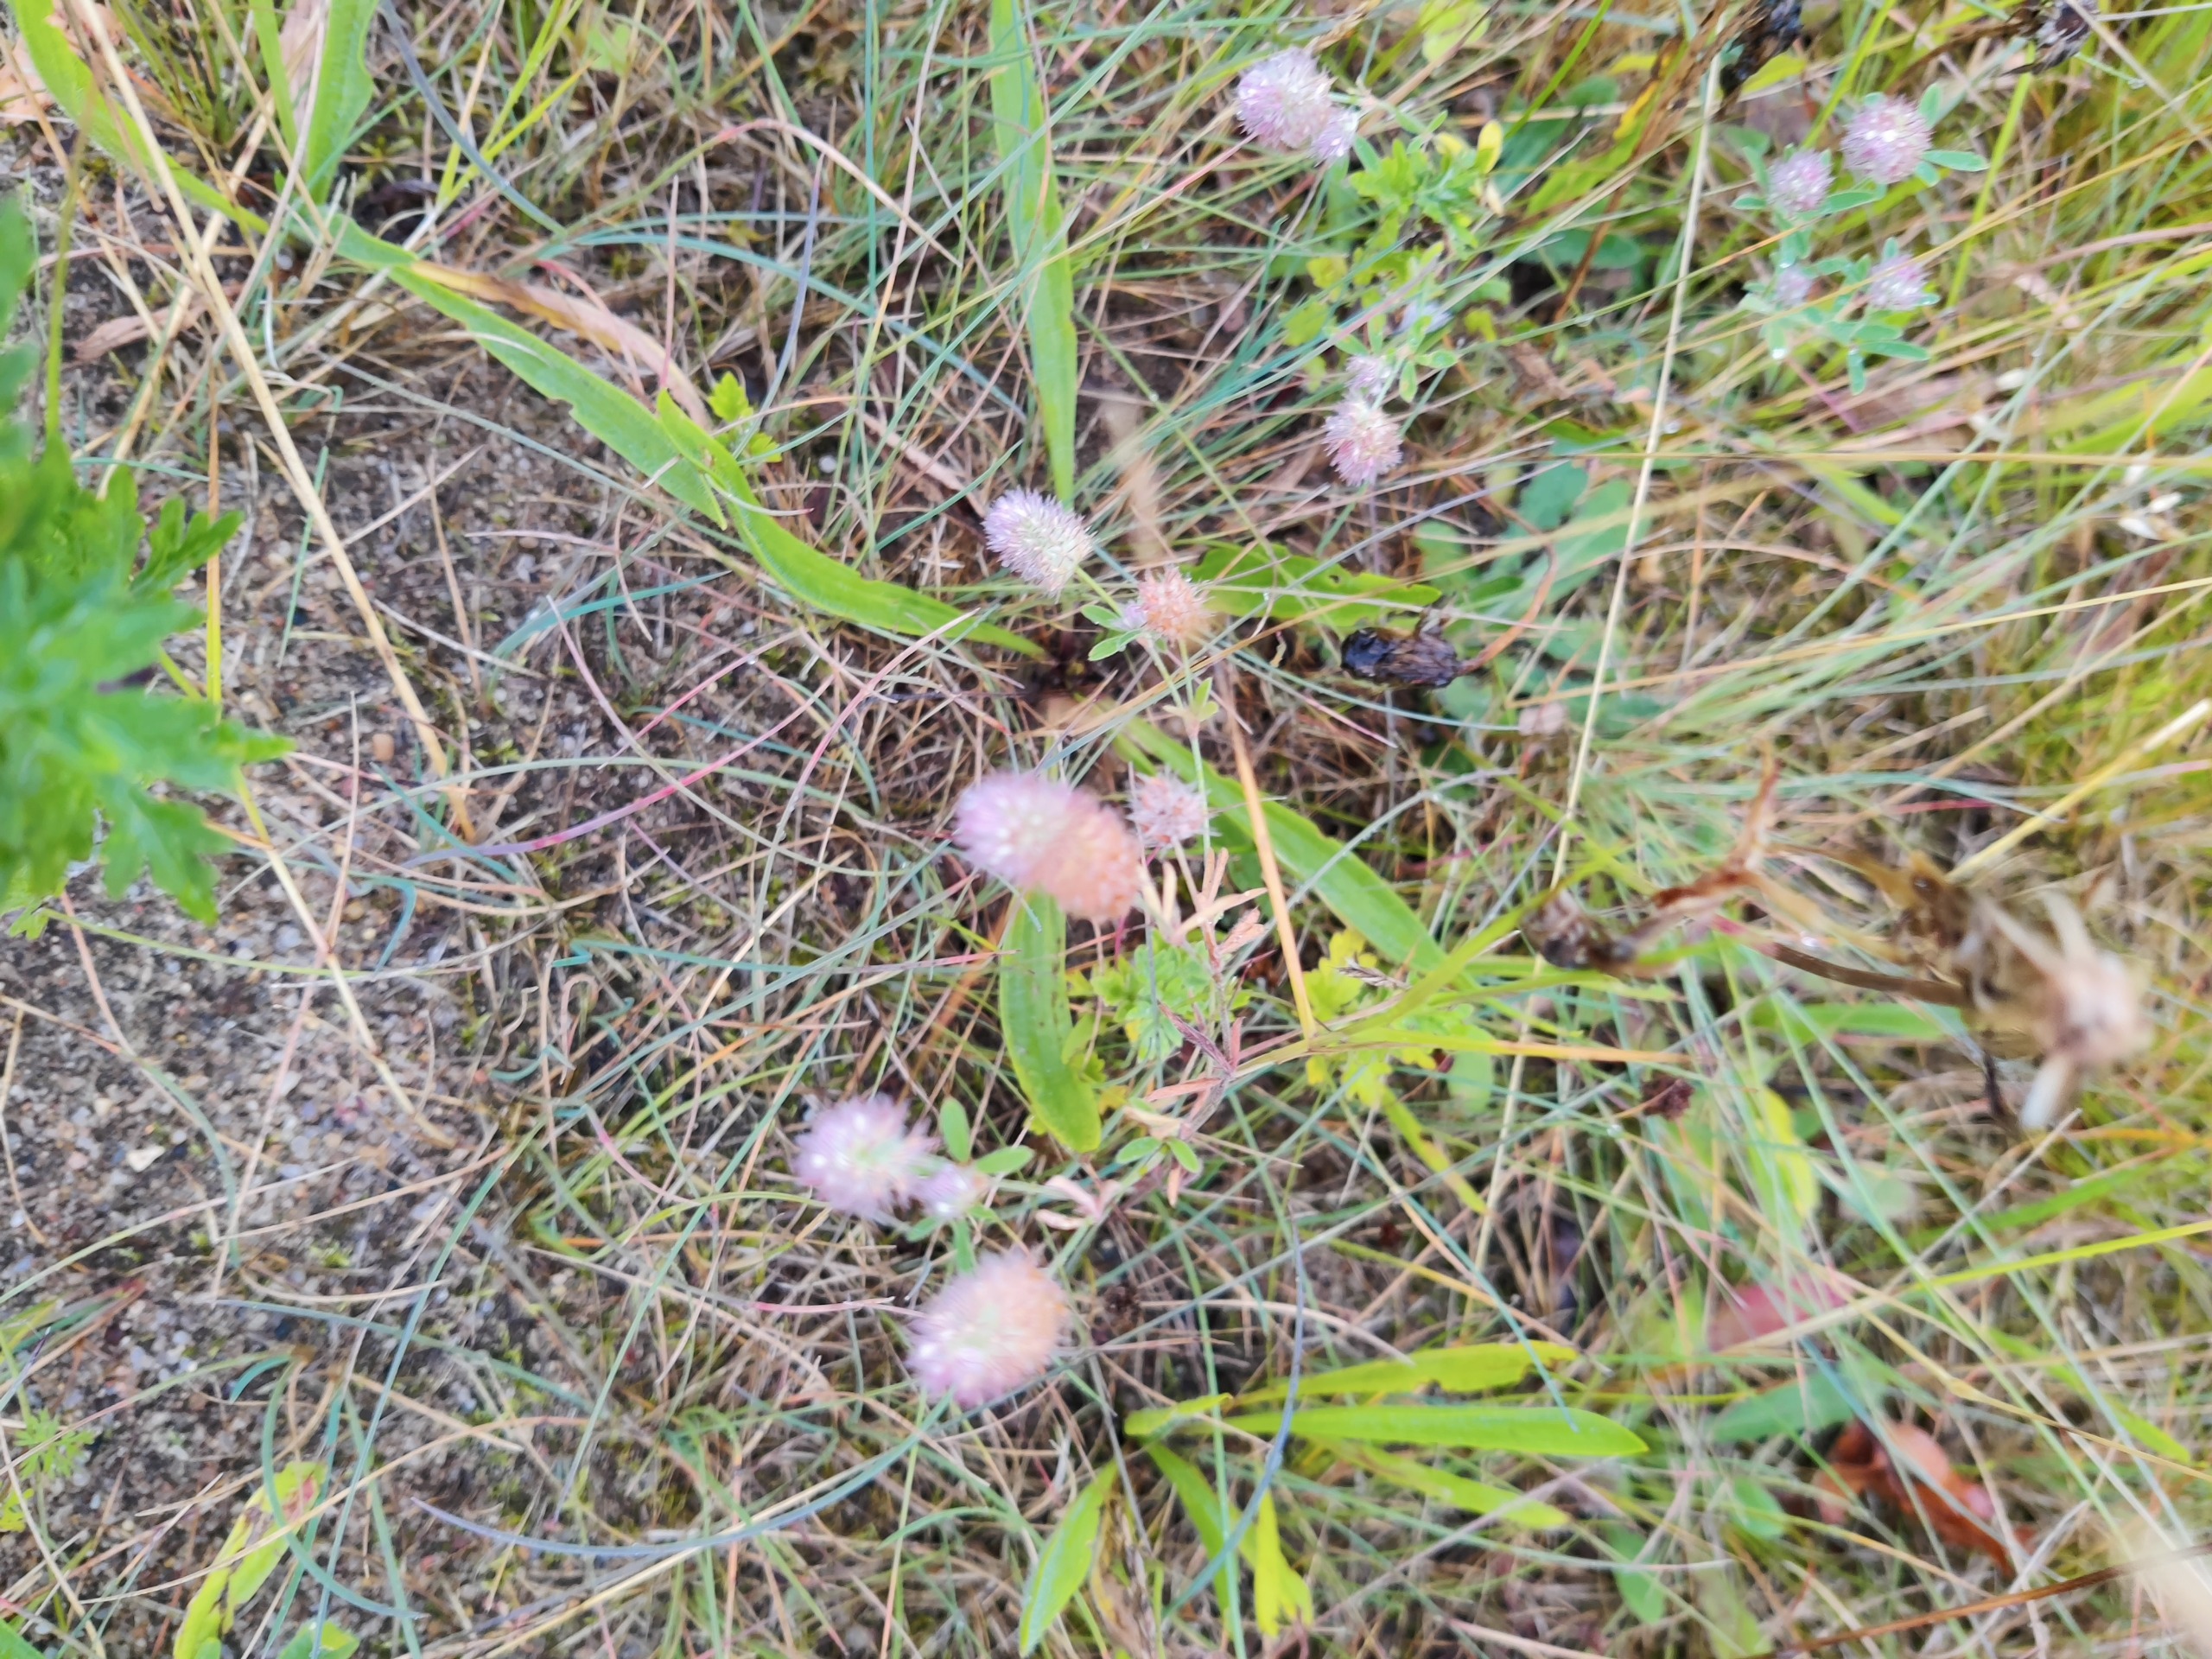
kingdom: Plantae
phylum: Tracheophyta
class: Magnoliopsida
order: Fabales
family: Fabaceae
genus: Trifolium
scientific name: Trifolium arvense
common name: Hare-kløver
